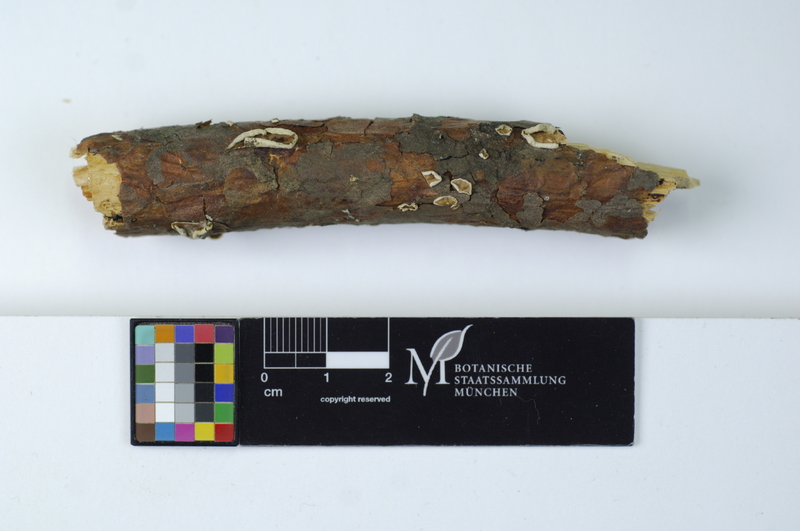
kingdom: Fungi
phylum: Basidiomycota
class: Agaricomycetes
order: Polyporales
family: Meruliaceae
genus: Phlebia
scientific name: Phlebia albomellea
